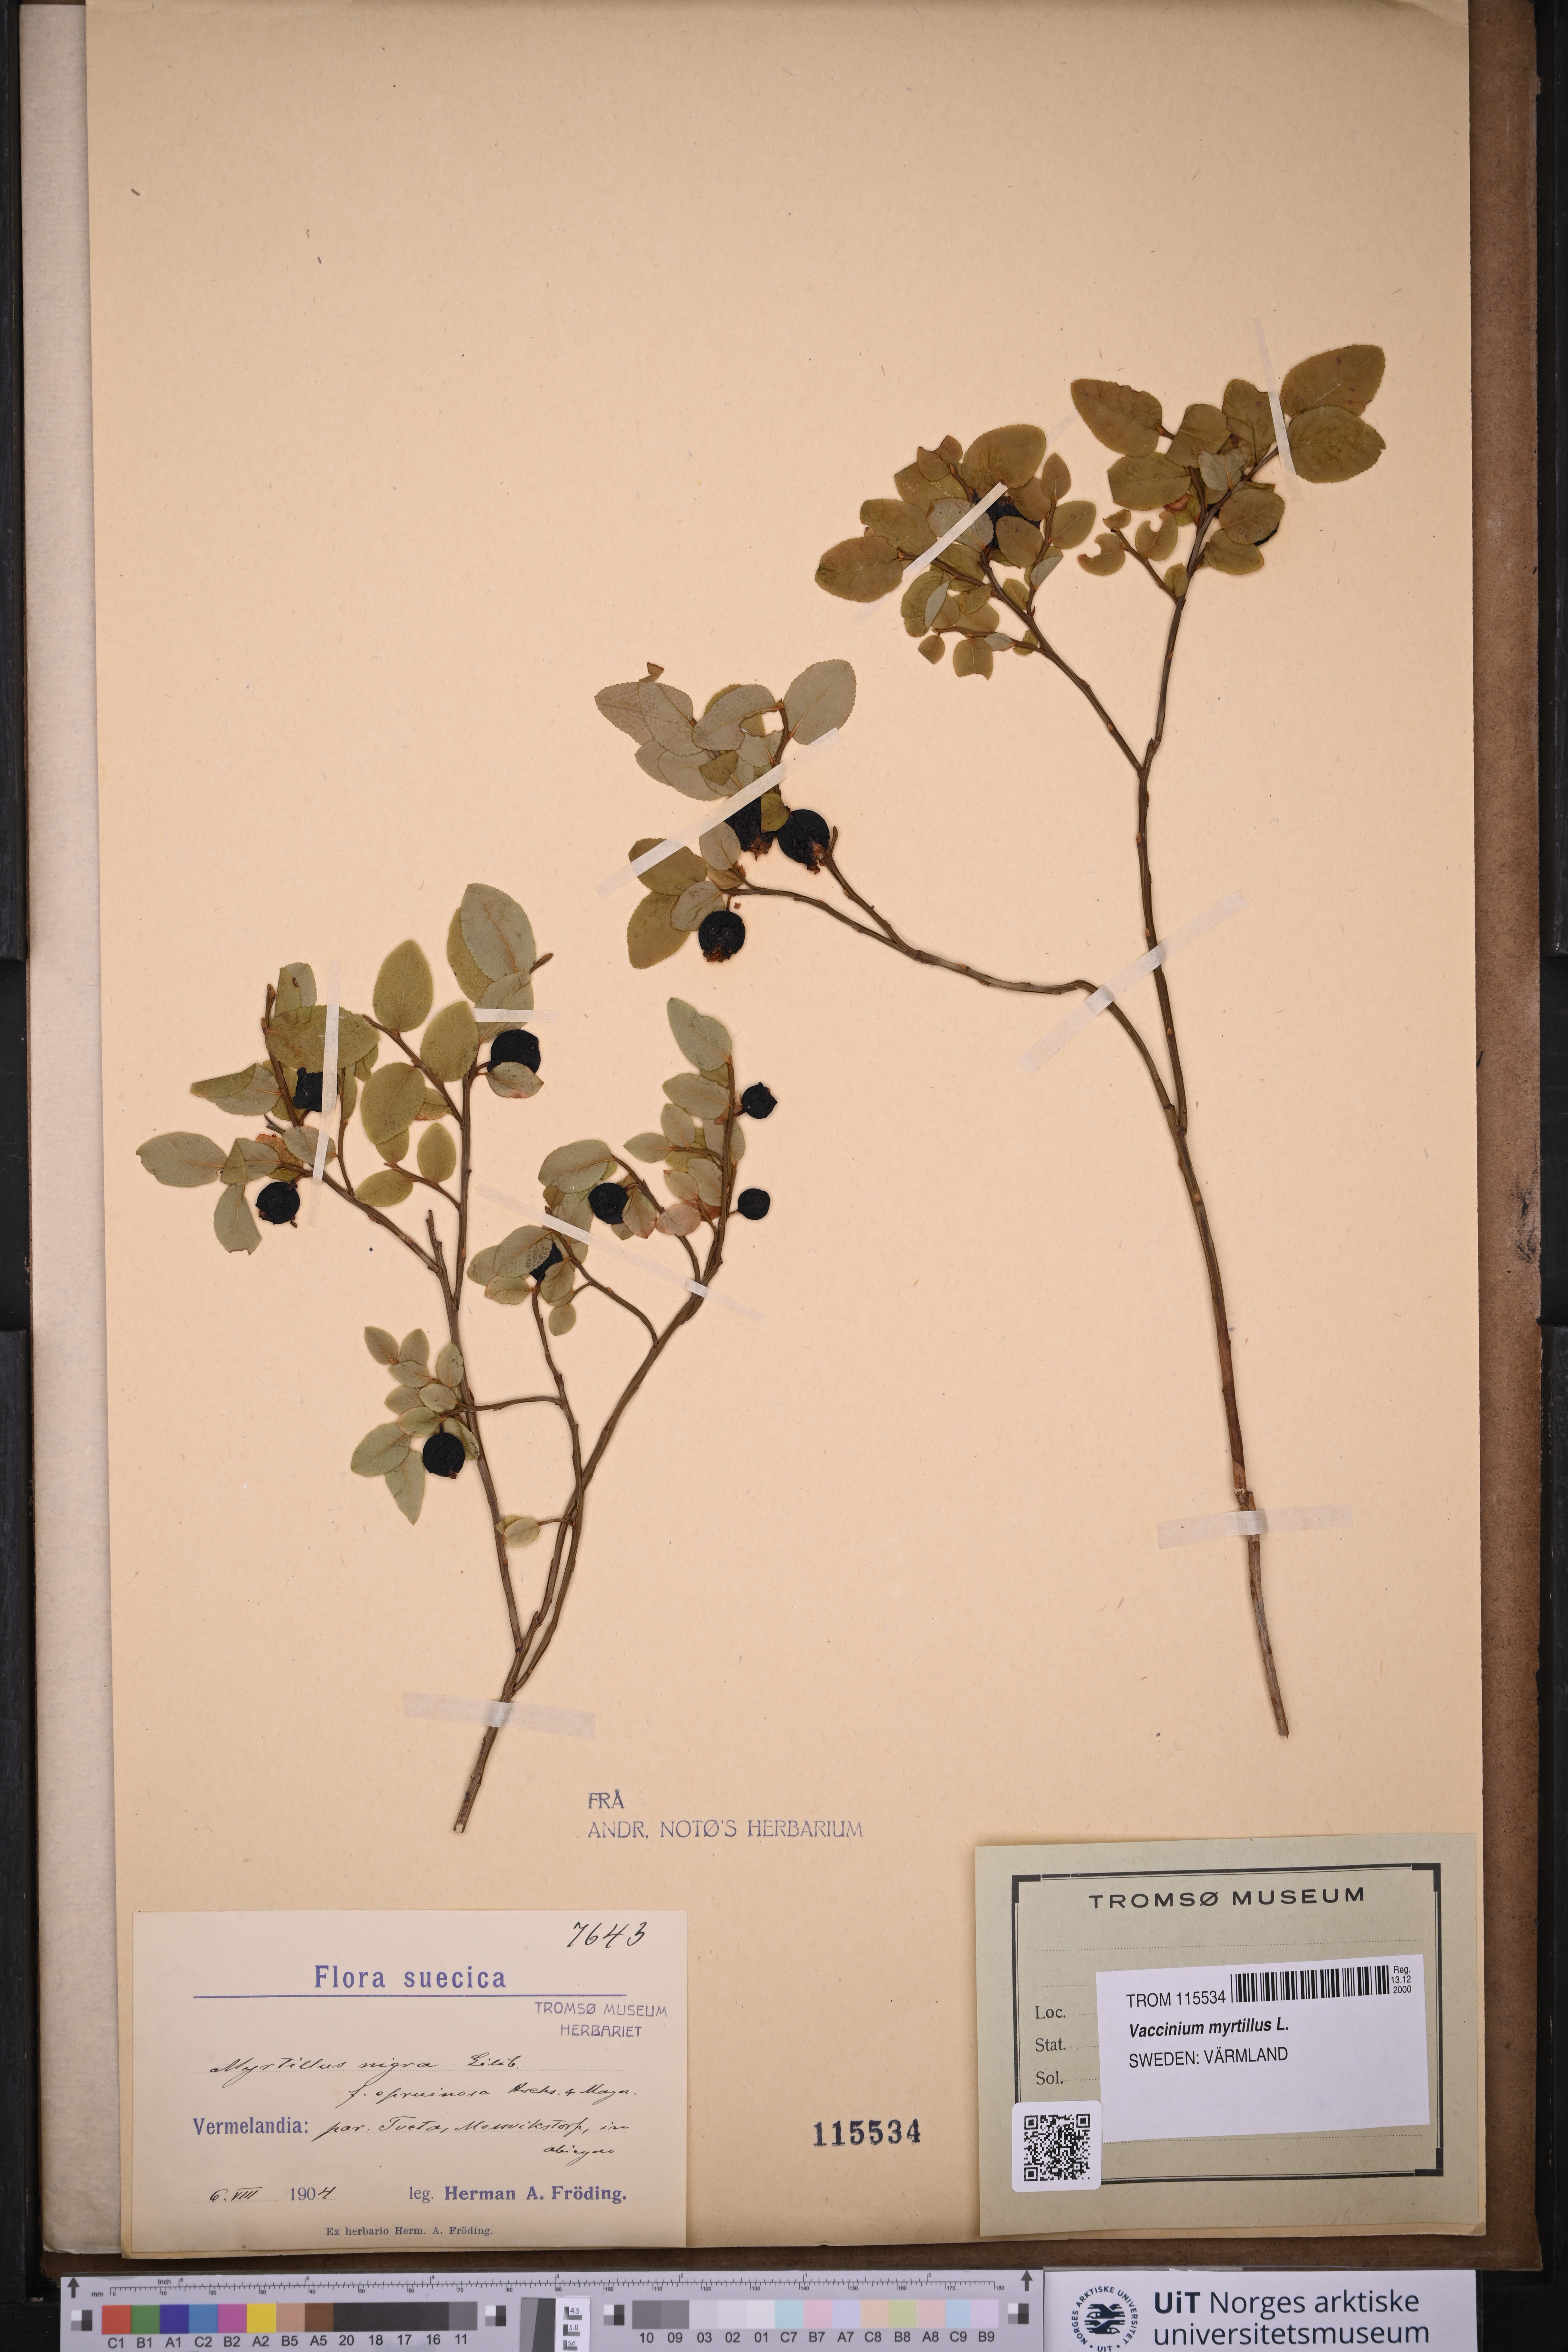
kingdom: Plantae
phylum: Tracheophyta
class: Magnoliopsida
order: Ericales
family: Ericaceae
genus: Vaccinium
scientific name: Vaccinium myrtillus
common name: Bilberry
